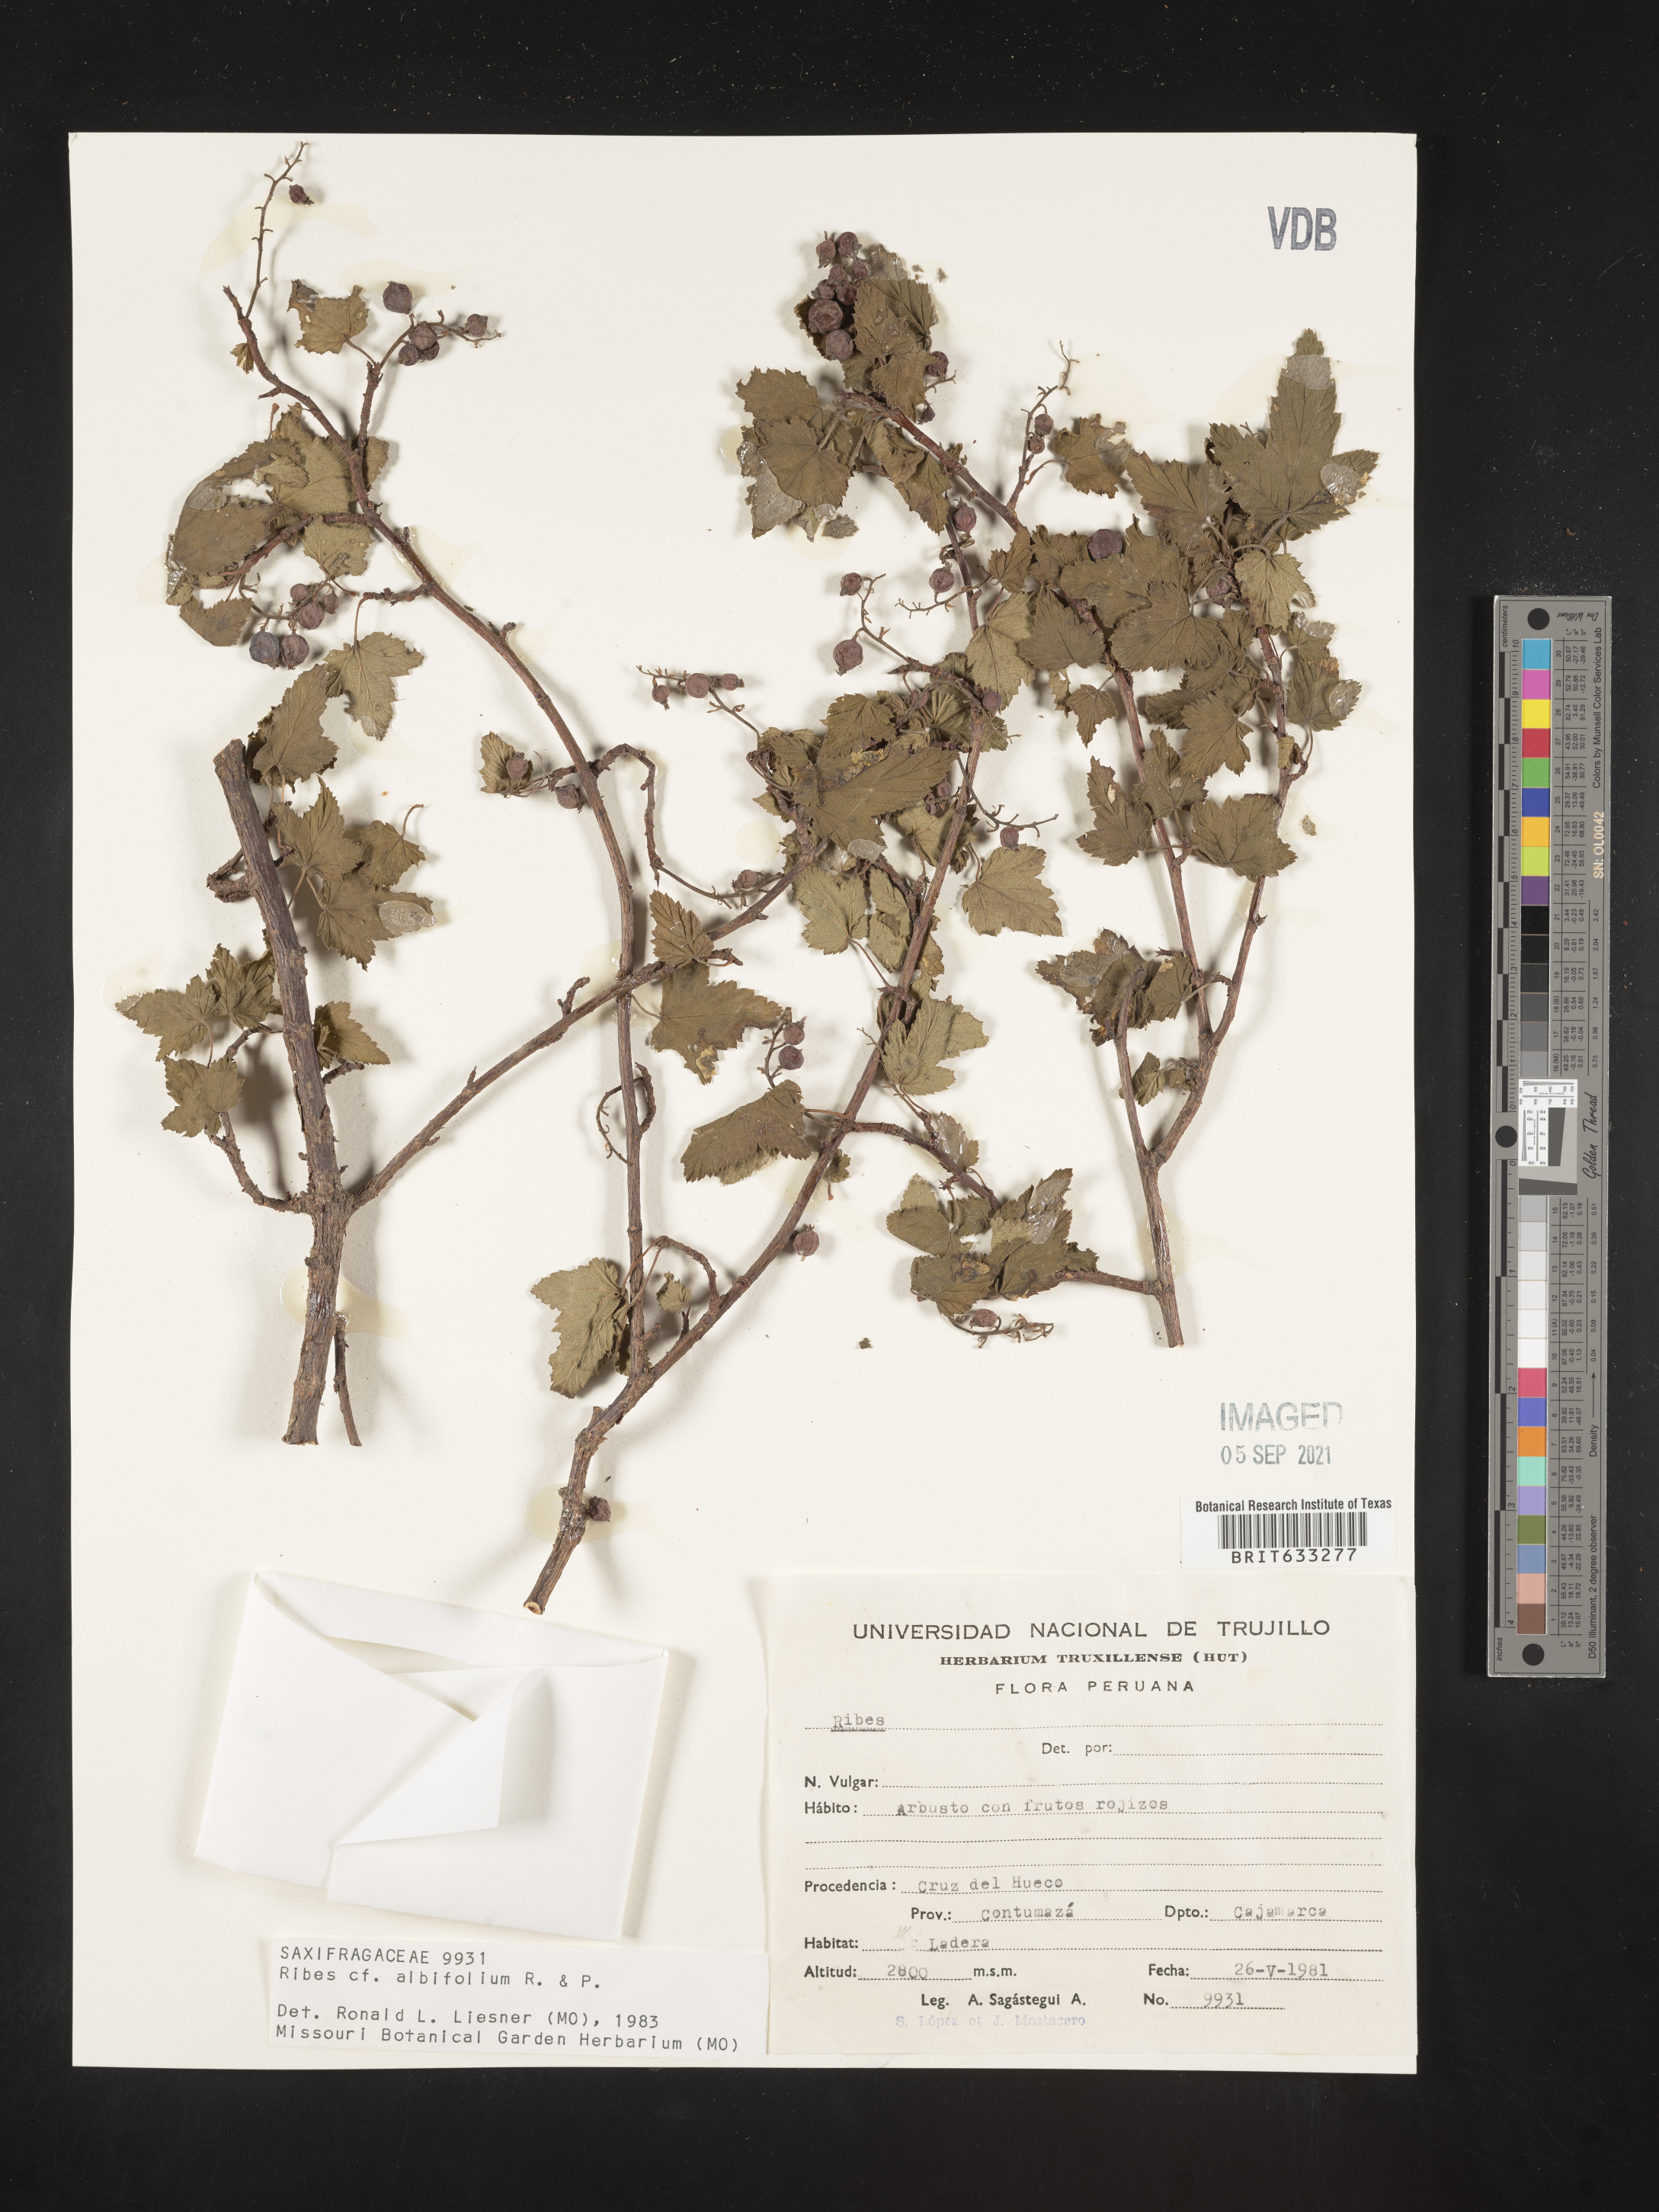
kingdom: Plantae
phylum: Tracheophyta
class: Magnoliopsida
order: Saxifragales
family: Grossulariaceae
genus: Ribes
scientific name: Ribes
